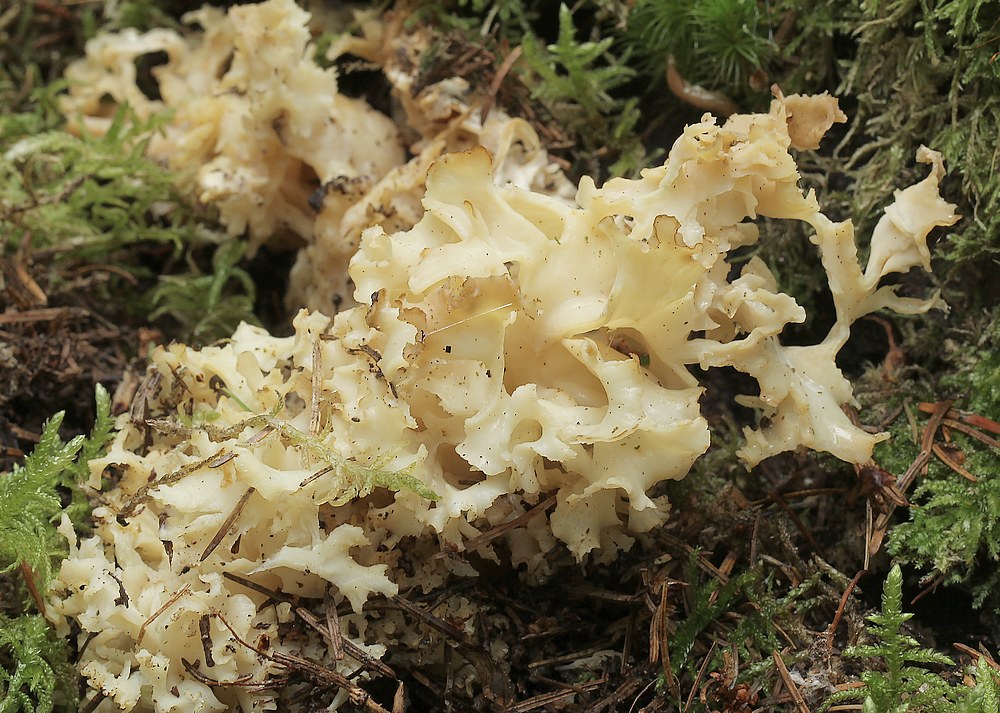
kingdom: Fungi
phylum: Basidiomycota
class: Agaricomycetes
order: Polyporales
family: Sparassidaceae
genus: Sparassis
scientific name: Sparassis crispa
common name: kruset blomkålssvamp
